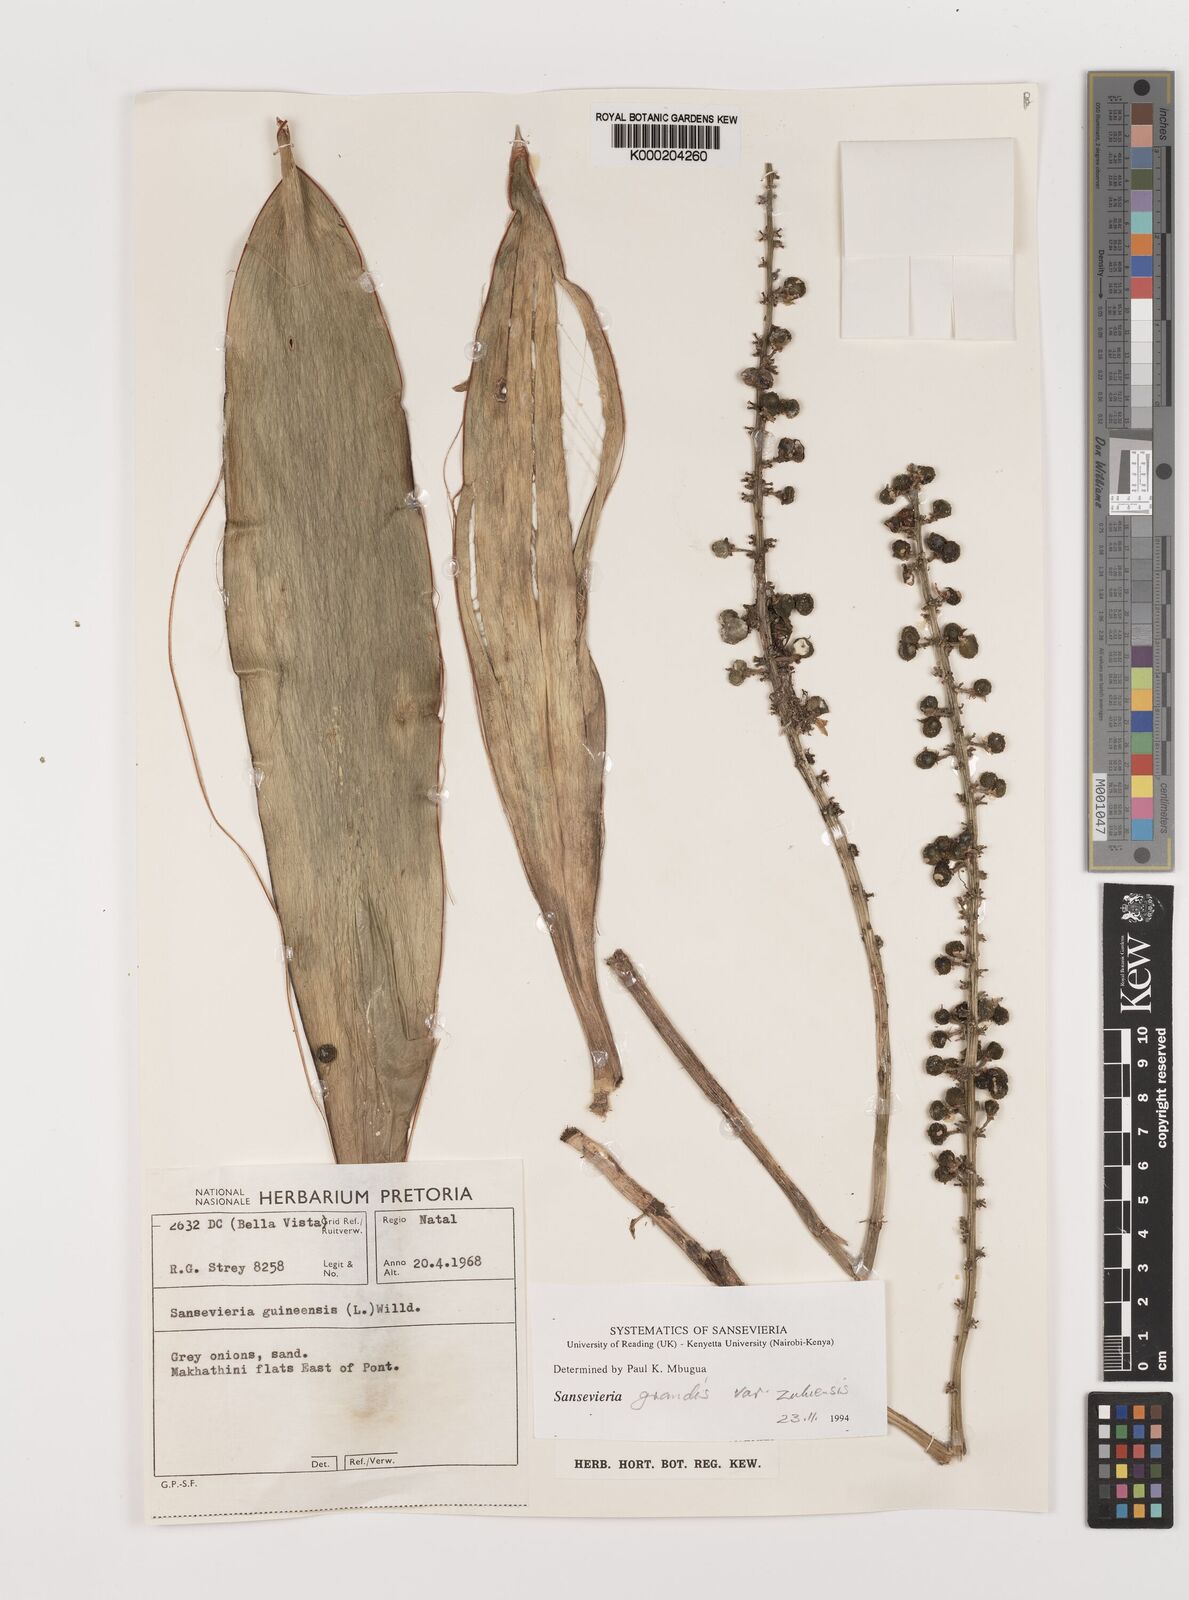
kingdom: Plantae
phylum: Tracheophyta
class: Liliopsida
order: Asparagales
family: Asparagaceae
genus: Dracaena
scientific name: Dracaena hyacinthoides
